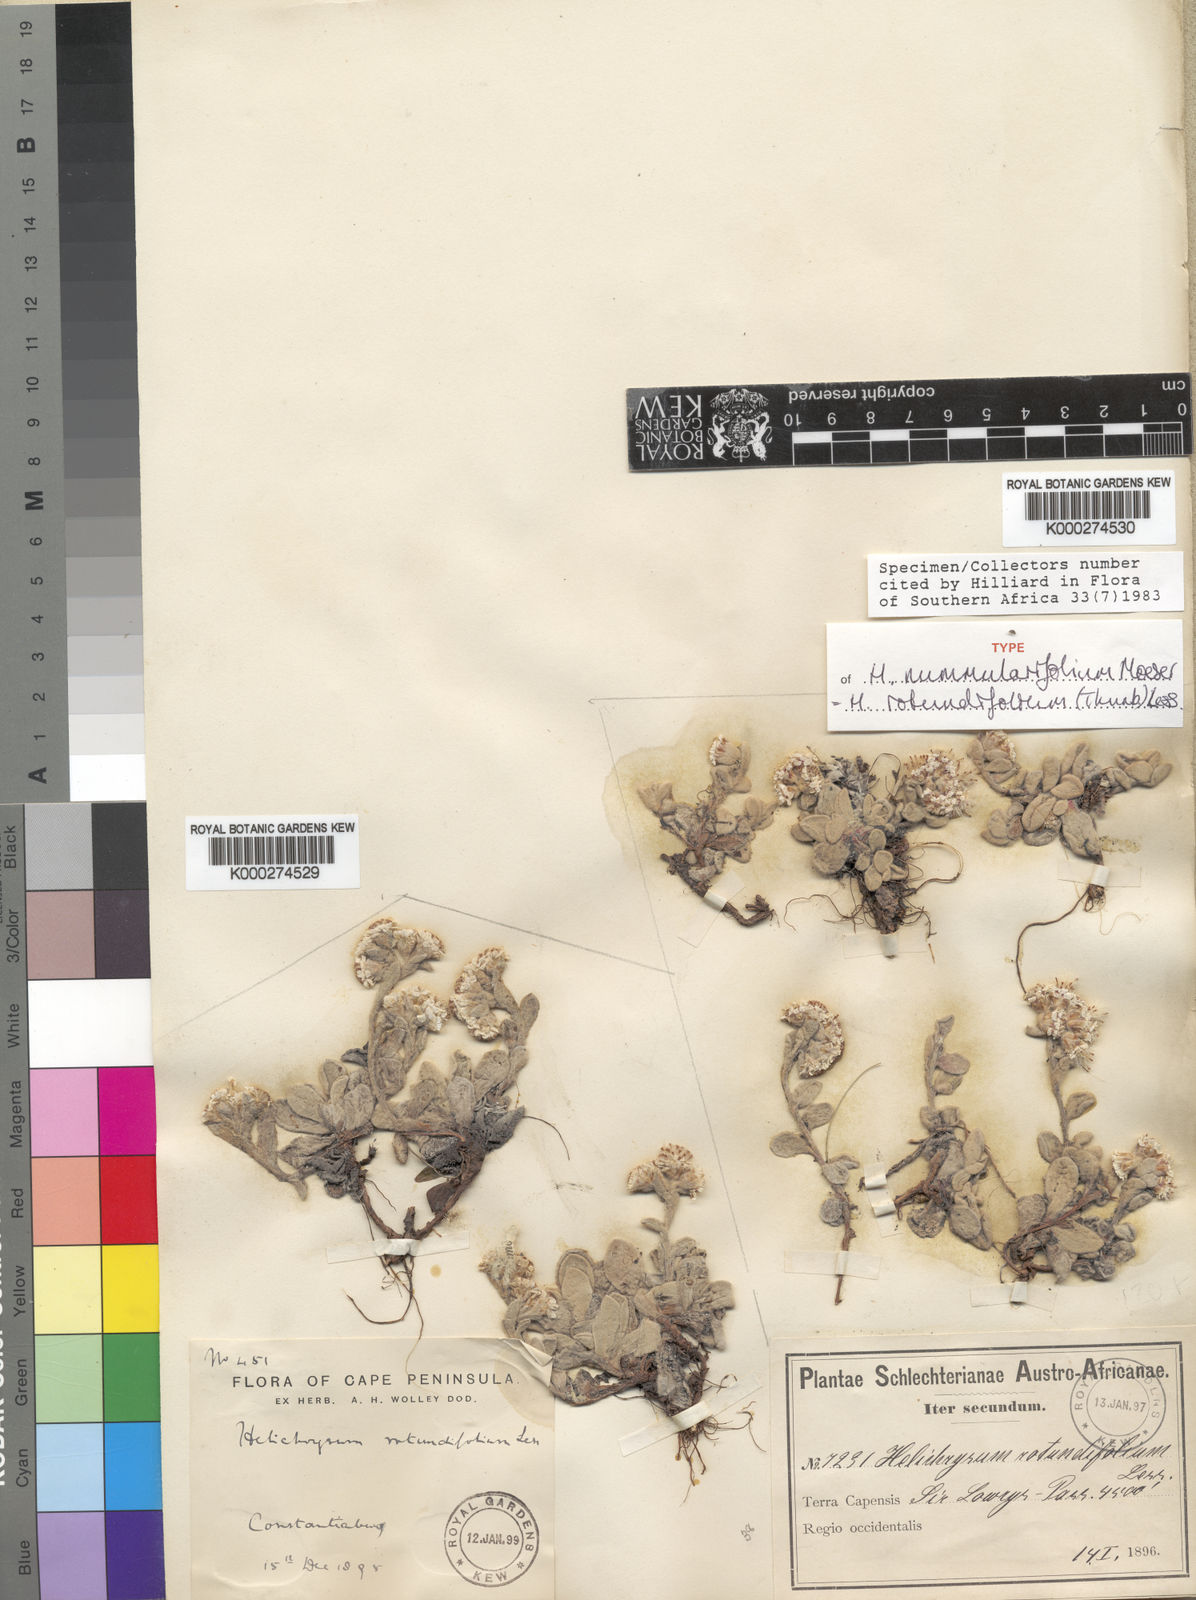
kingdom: Plantae
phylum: Tracheophyta
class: Magnoliopsida
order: Asterales
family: Asteraceae
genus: Helichrysum
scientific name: Helichrysum rotundifolium
